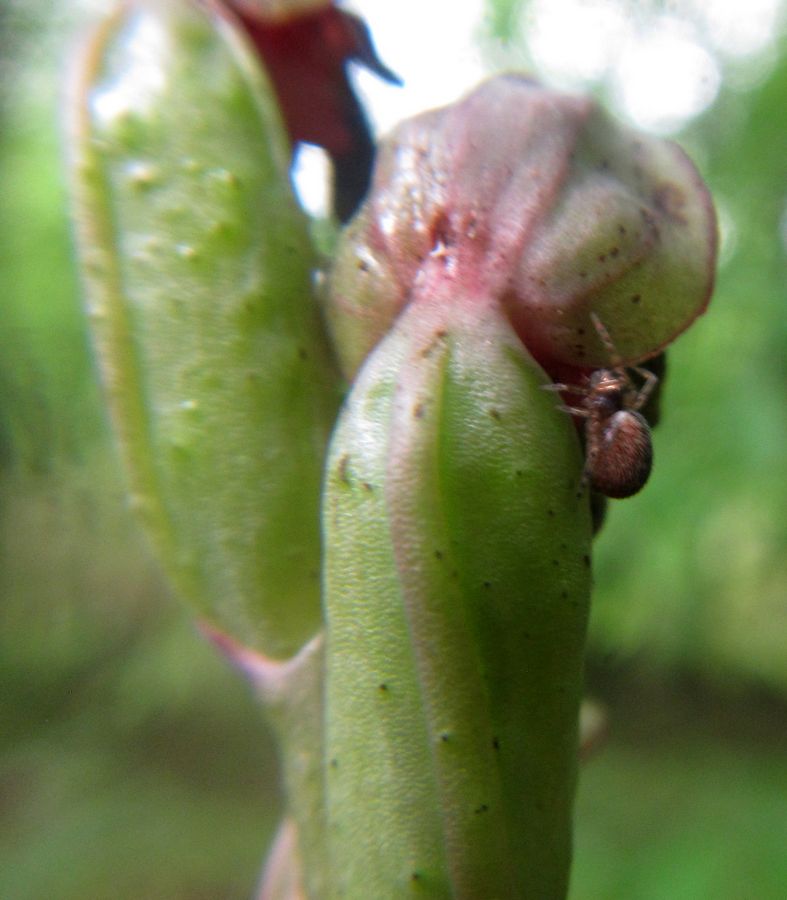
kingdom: Plantae
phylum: Tracheophyta
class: Liliopsida
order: Asparagales
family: Orchidaceae
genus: Steveniella
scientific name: Steveniella satyrioides
